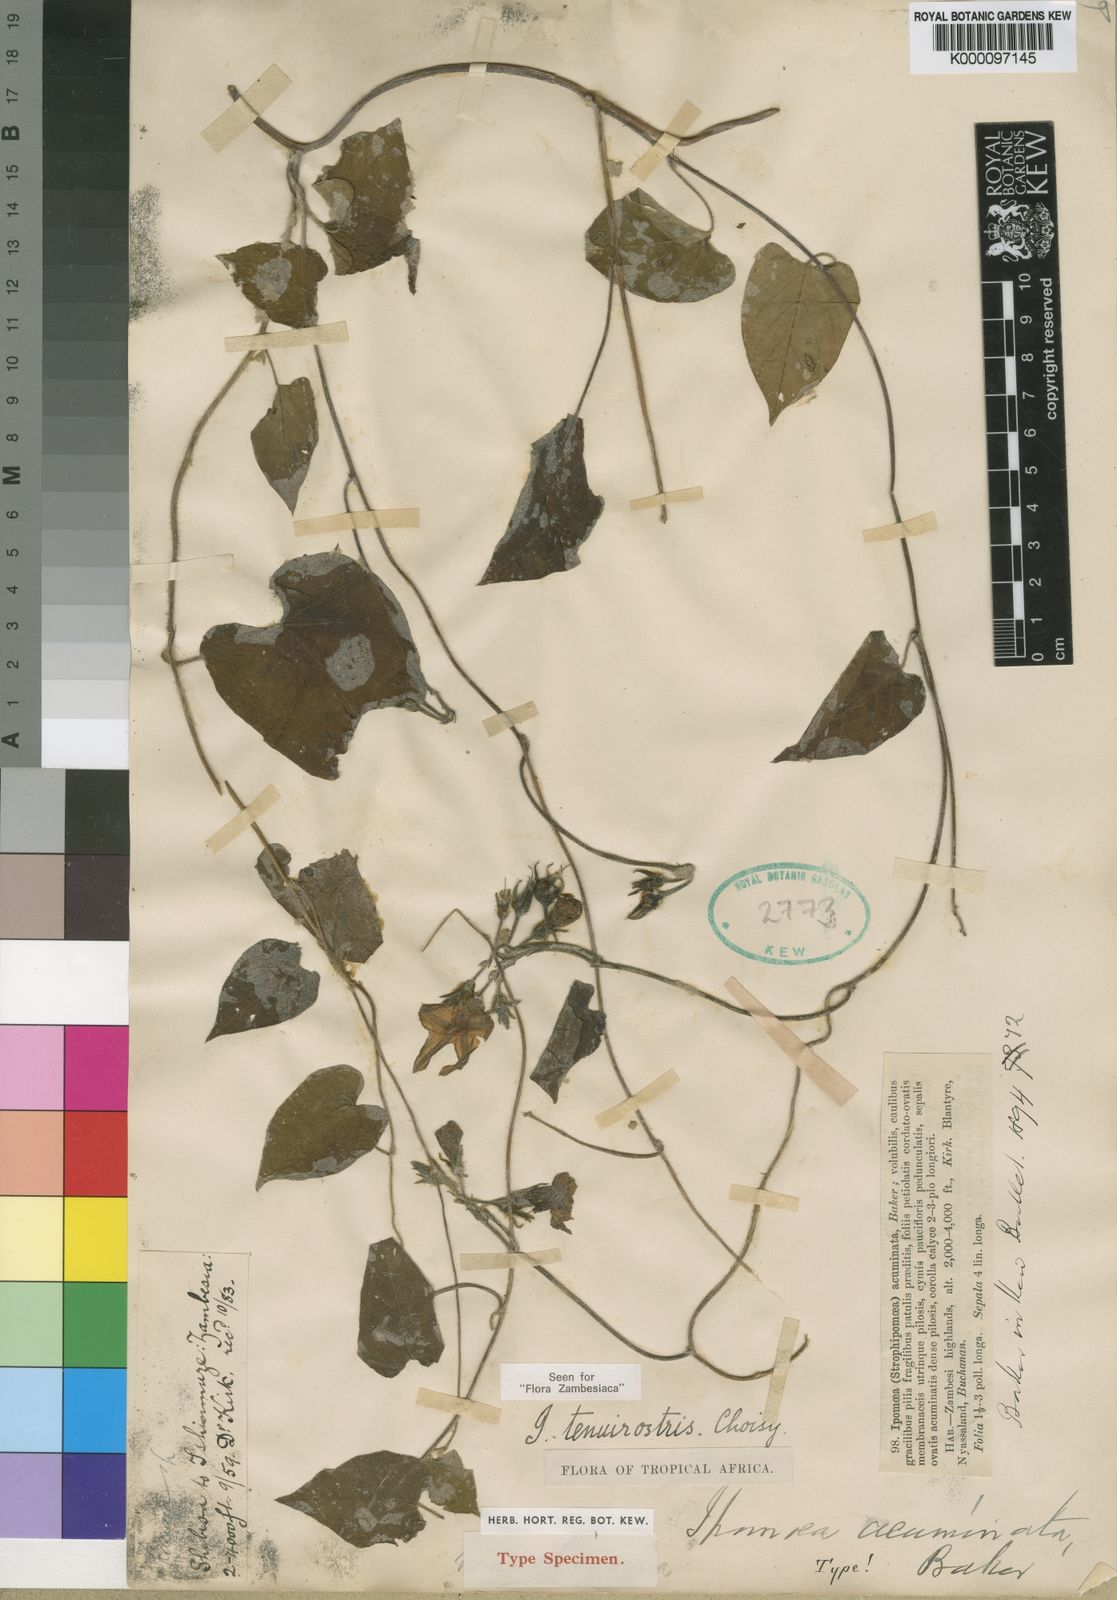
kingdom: Plantae
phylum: Tracheophyta
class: Magnoliopsida
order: Solanales
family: Convolvulaceae
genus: Ipomoea
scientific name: Ipomoea tenuirostris
